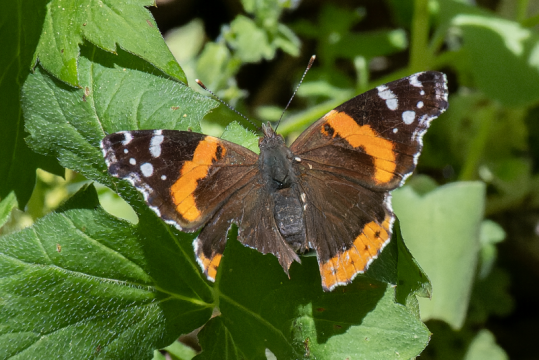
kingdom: Animalia
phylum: Arthropoda
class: Insecta
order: Lepidoptera
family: Nymphalidae
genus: Vanessa
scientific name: Vanessa atalanta
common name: Red Admiral
